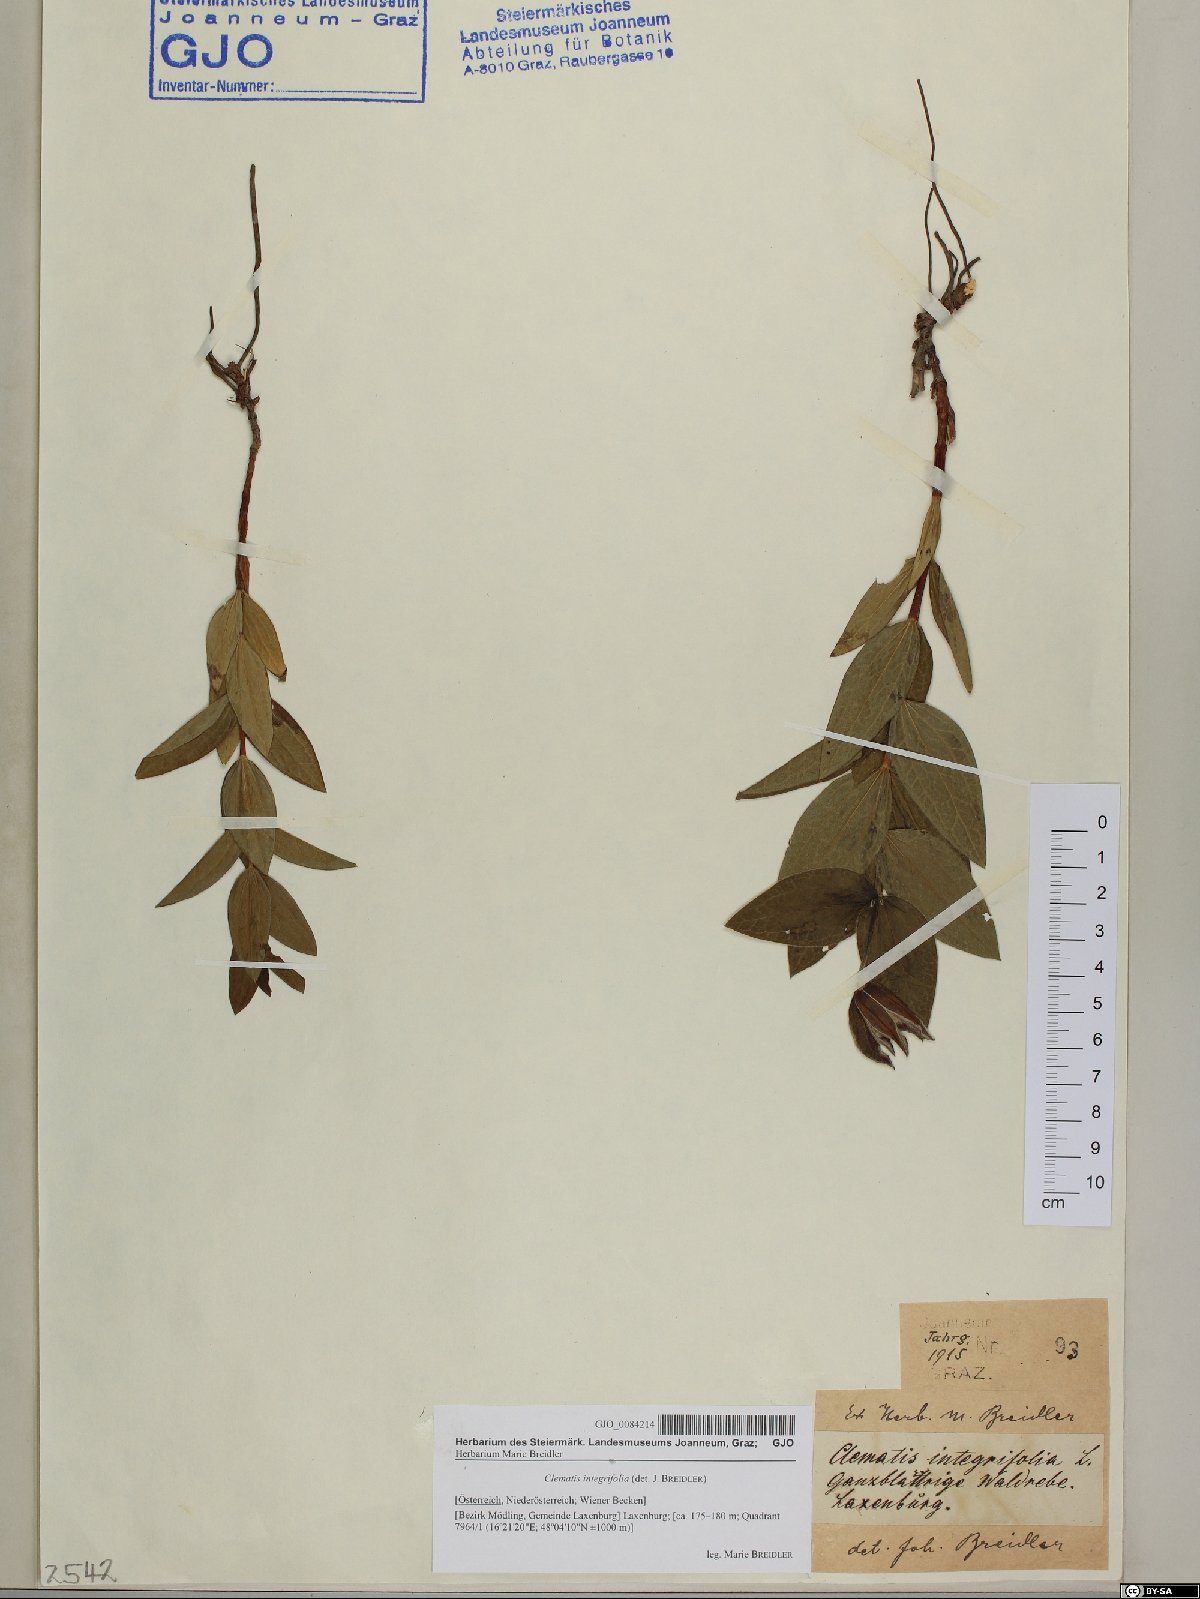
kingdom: Plantae
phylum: Tracheophyta
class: Magnoliopsida
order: Ranunculales
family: Ranunculaceae
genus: Clematis
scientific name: Clematis integrifolia
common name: Solitary clematis
